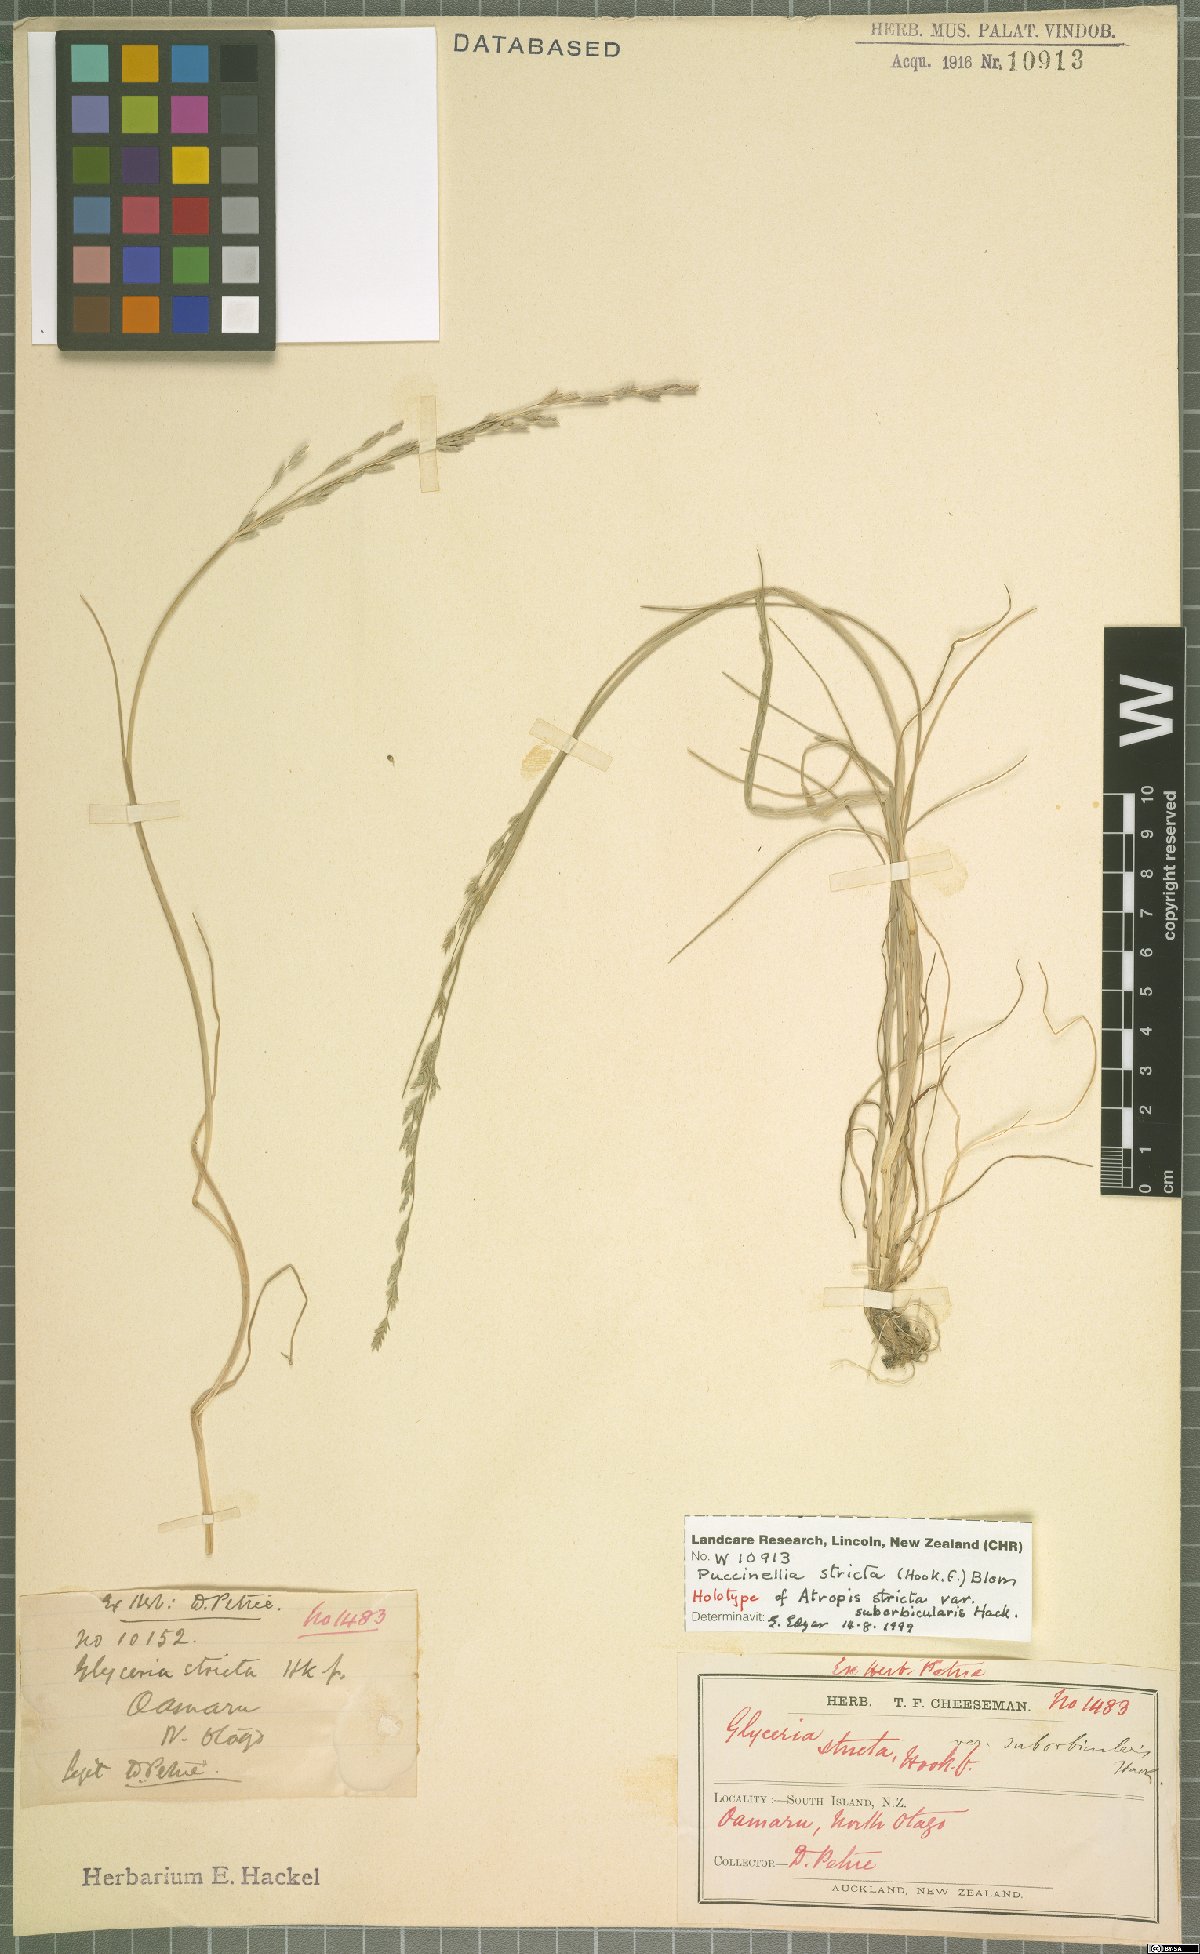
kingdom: Plantae
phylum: Tracheophyta
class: Liliopsida
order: Poales
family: Poaceae
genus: Puccinellia
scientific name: Puccinellia stricta
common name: Australian saltmarsh grass
